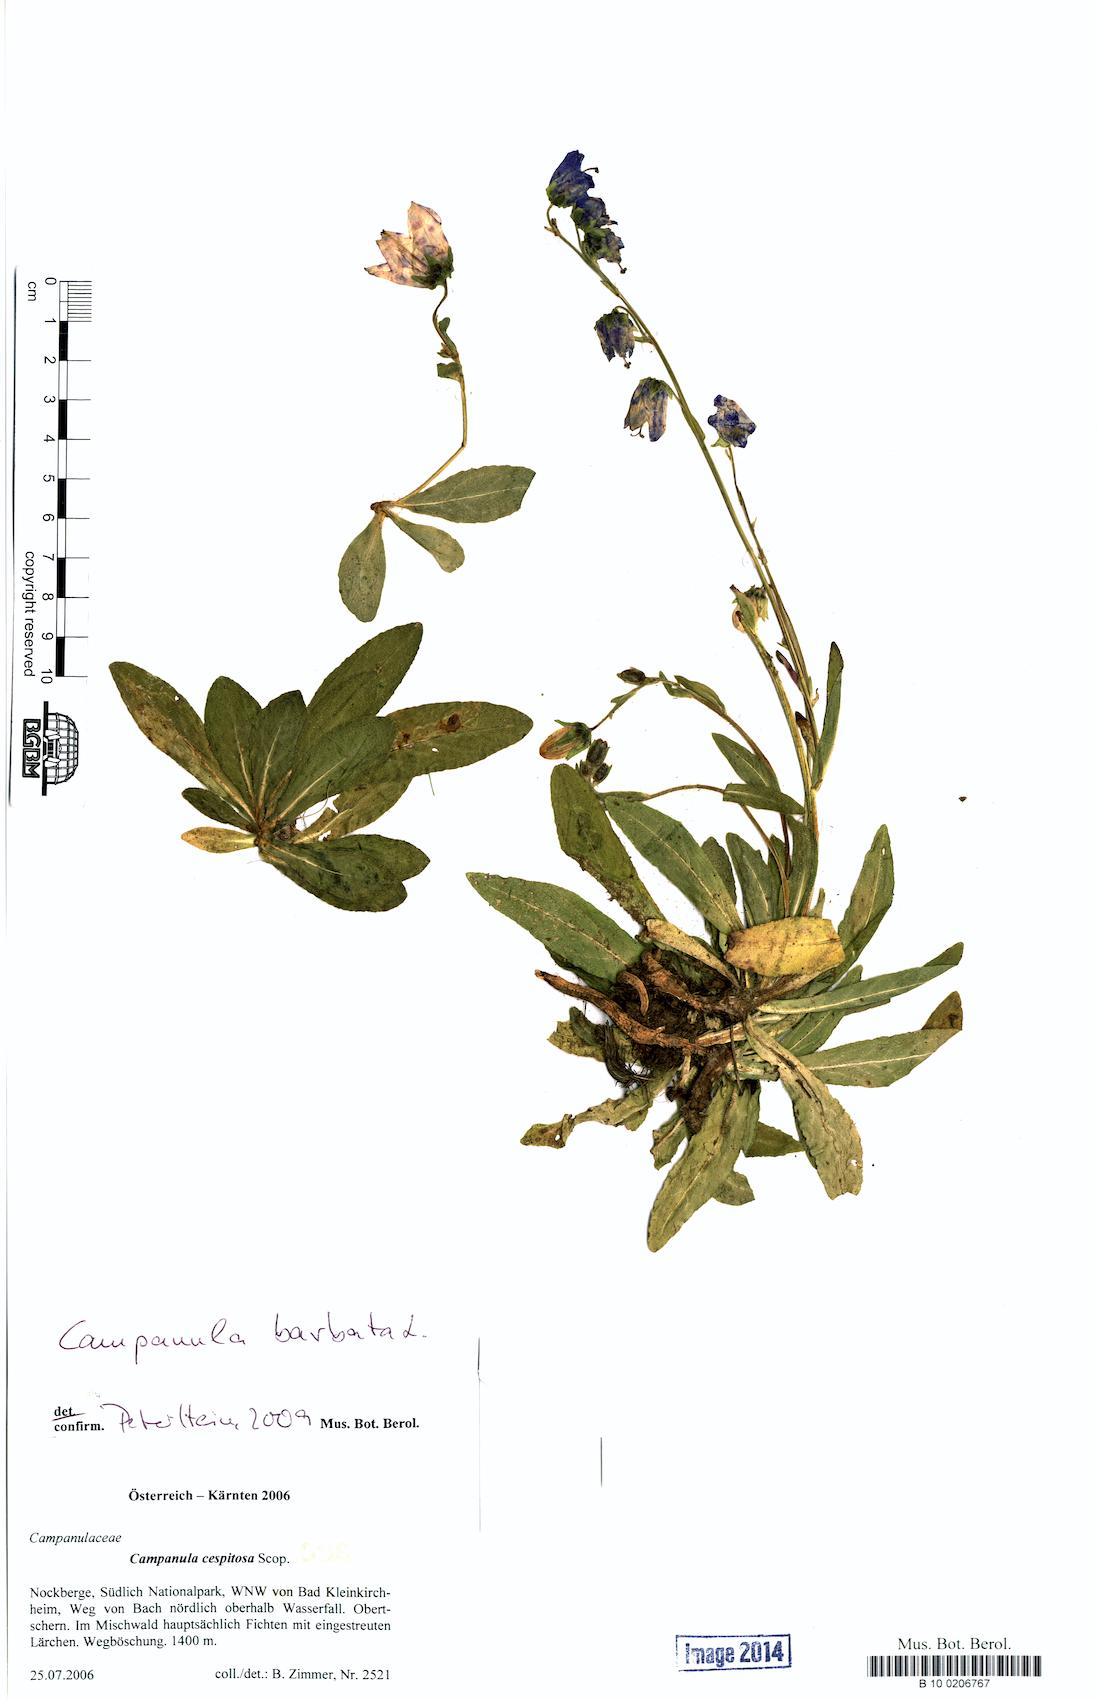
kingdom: Plantae
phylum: Tracheophyta
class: Magnoliopsida
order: Asterales
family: Campanulaceae
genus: Campanula
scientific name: Campanula barbata
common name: Bearded bellflower
